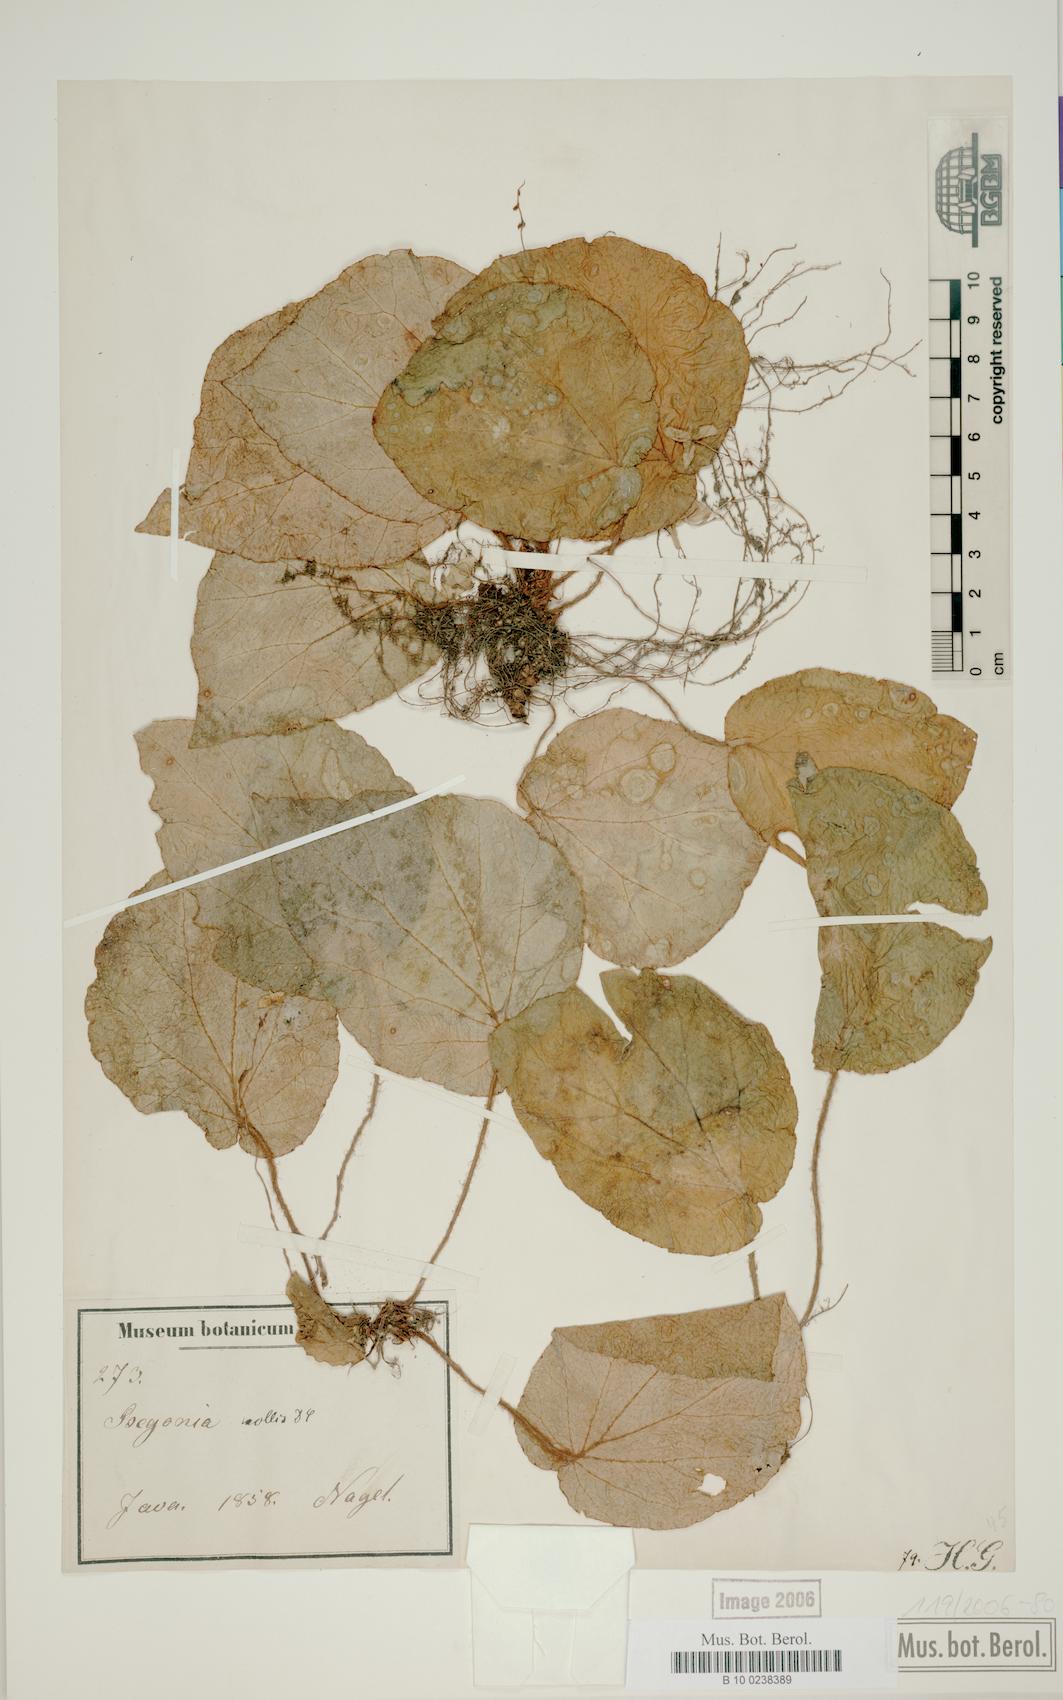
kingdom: Plantae
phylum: Tracheophyta
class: Magnoliopsida
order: Cucurbitales
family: Begoniaceae
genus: Begonia
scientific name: Begonia mollis
